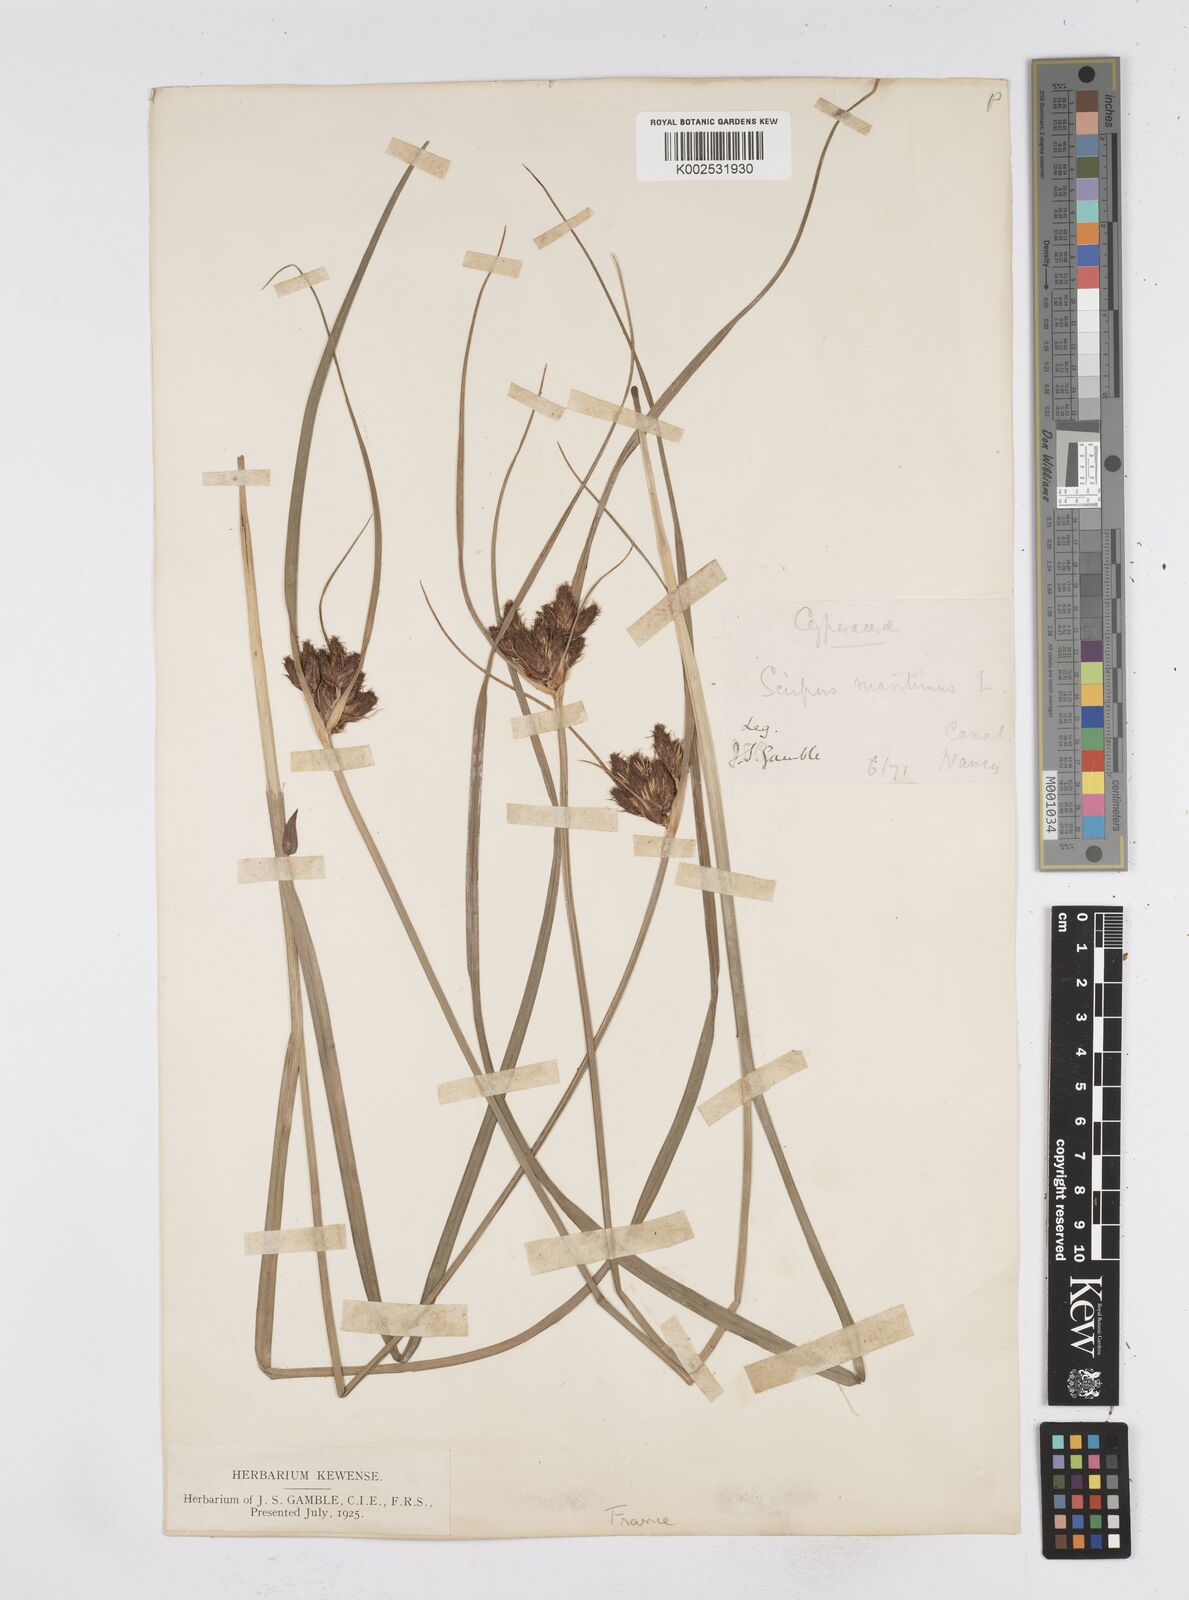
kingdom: Plantae
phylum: Tracheophyta
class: Liliopsida
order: Poales
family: Cyperaceae
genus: Bolboschoenus
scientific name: Bolboschoenus maritimus
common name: Sea club-rush
